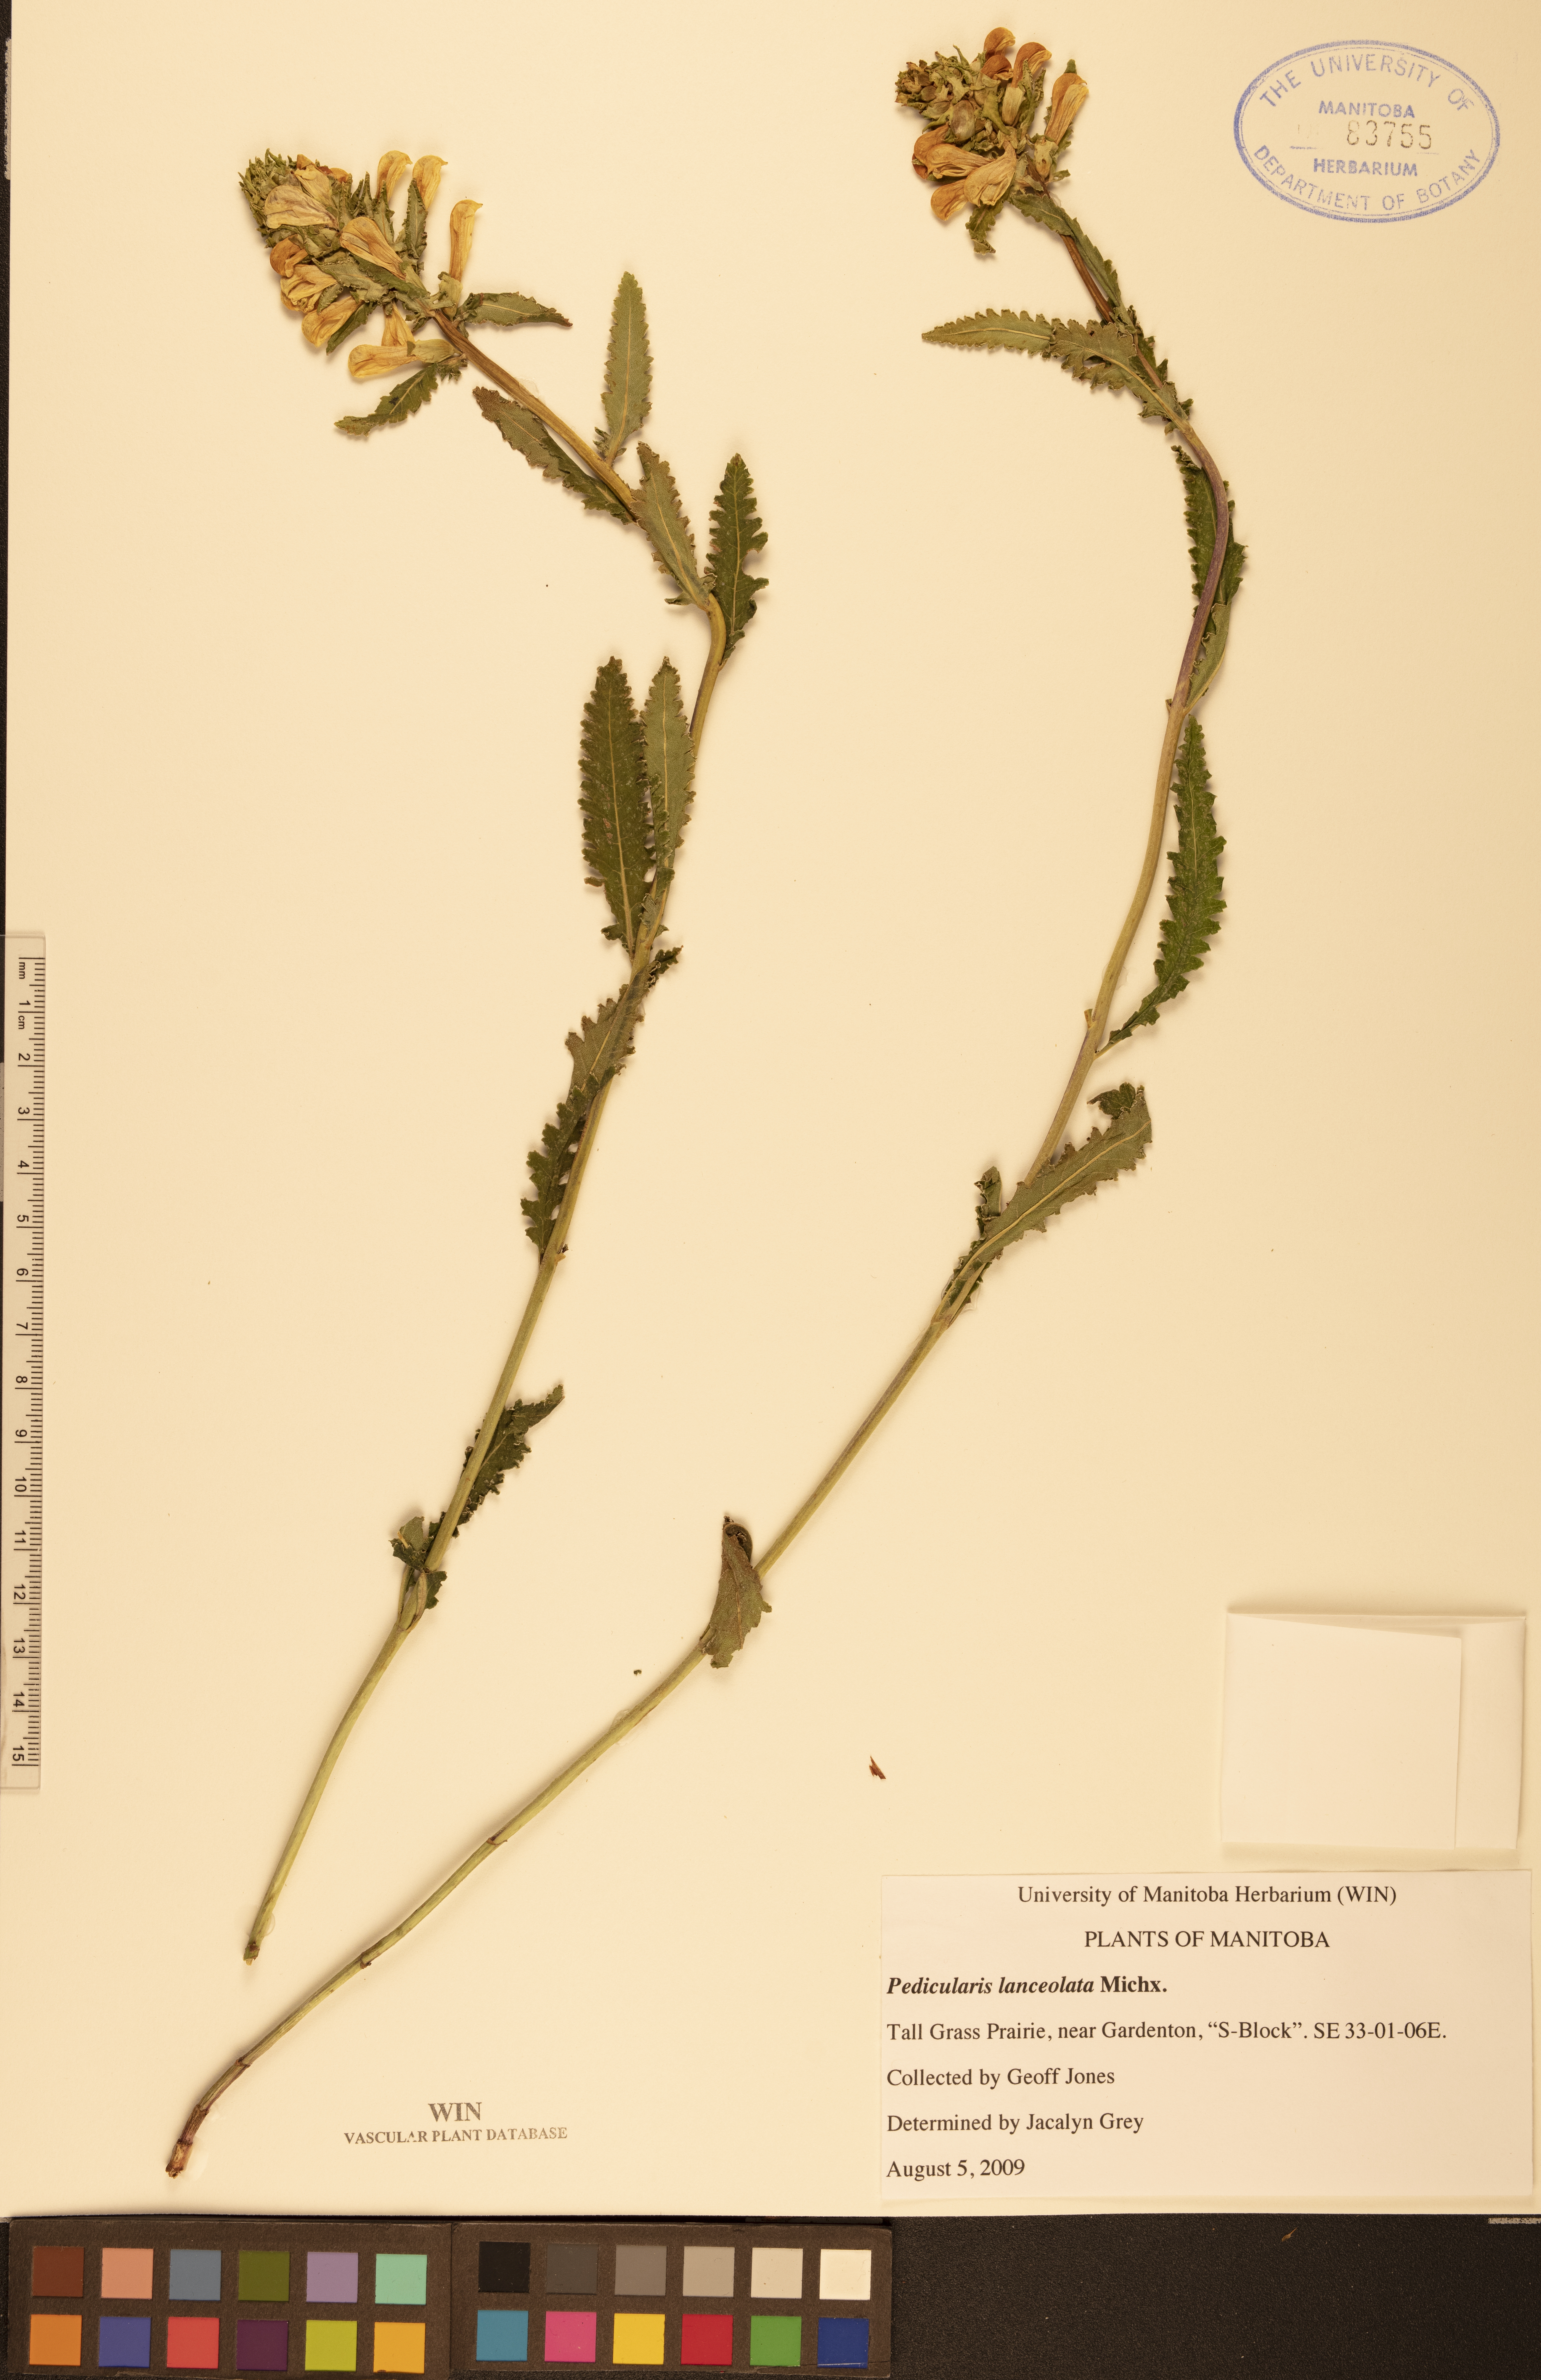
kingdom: Plantae
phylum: Tracheophyta
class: Magnoliopsida
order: Lamiales
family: Orobanchaceae
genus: Pedicularis
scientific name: Pedicularis lanceolata
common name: Swamp lousewort
